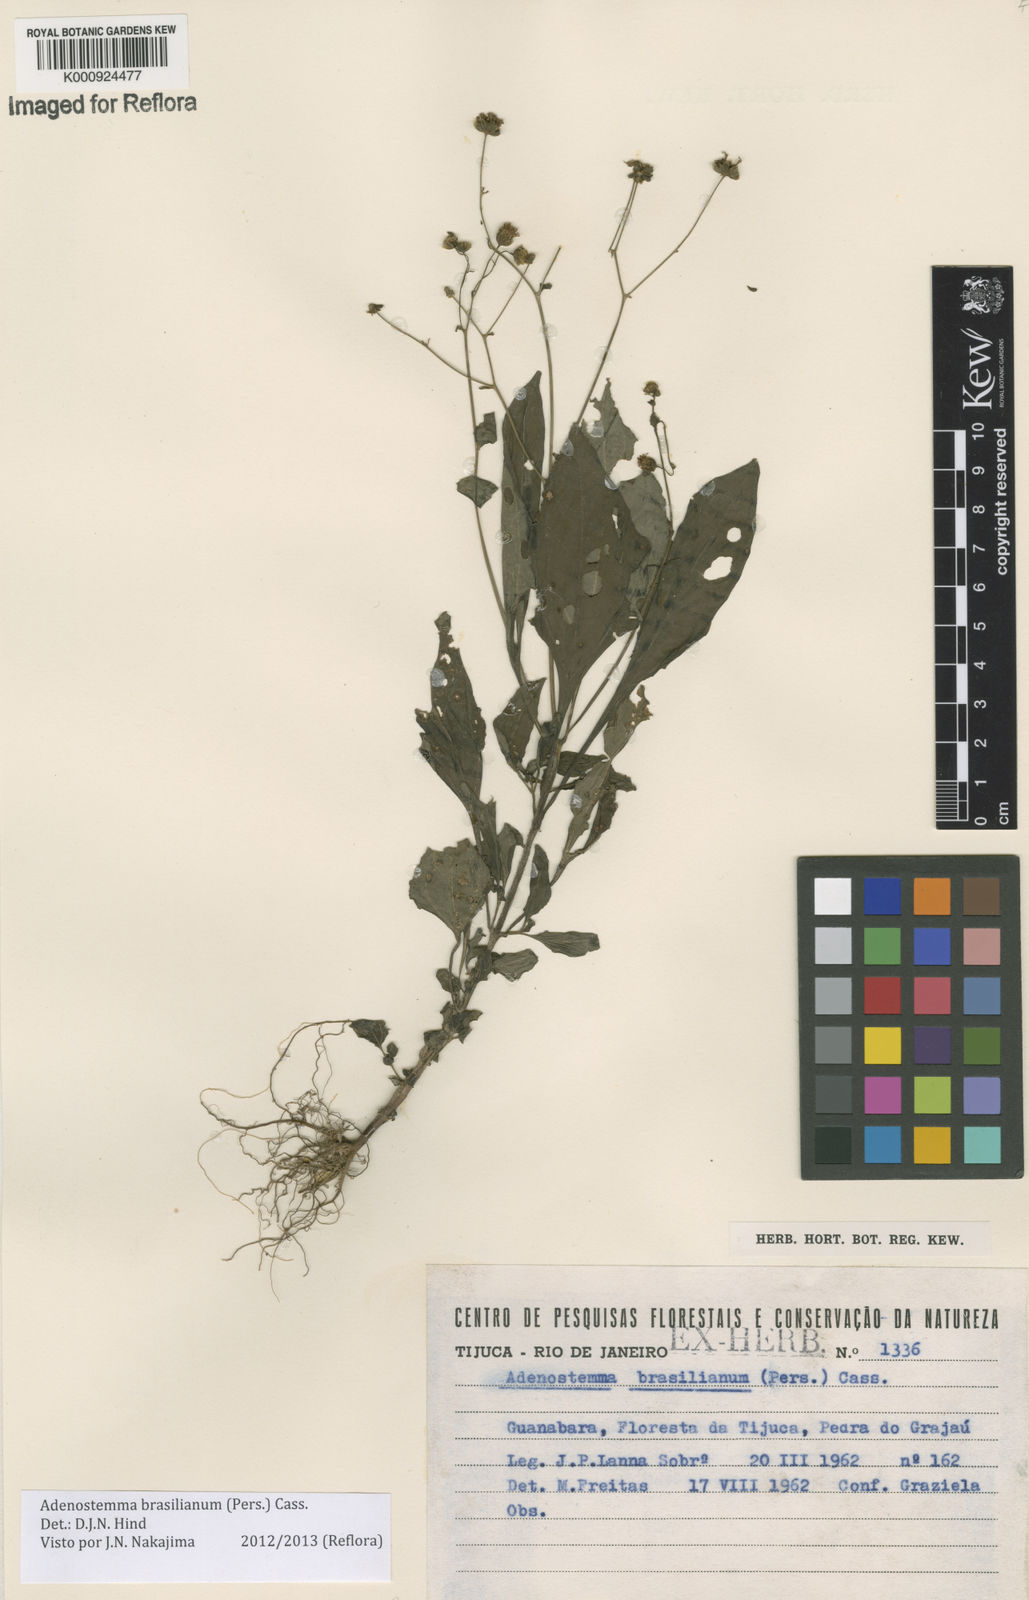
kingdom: Plantae
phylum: Tracheophyta
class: Magnoliopsida
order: Asterales
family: Asteraceae
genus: Adenostemma
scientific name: Adenostemma
